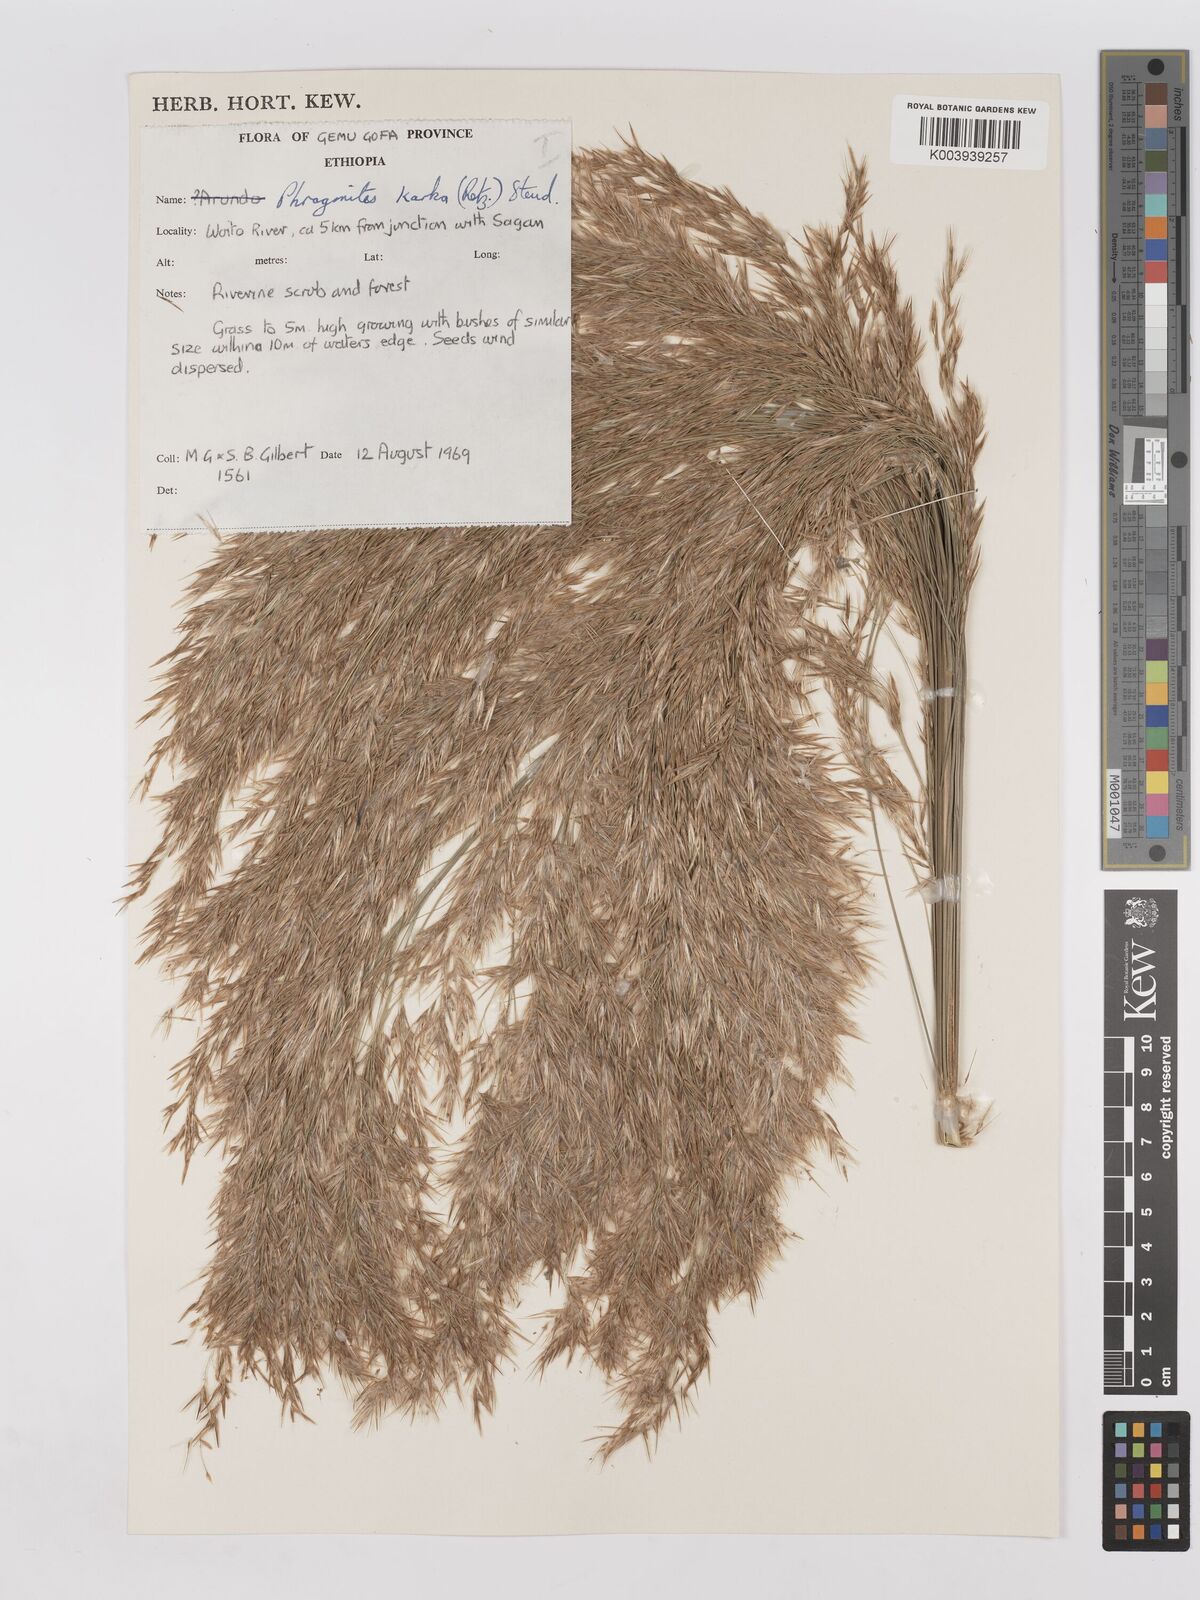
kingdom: Plantae
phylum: Tracheophyta
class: Liliopsida
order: Poales
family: Poaceae
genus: Phragmites
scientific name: Phragmites karka
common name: Tropical reed
